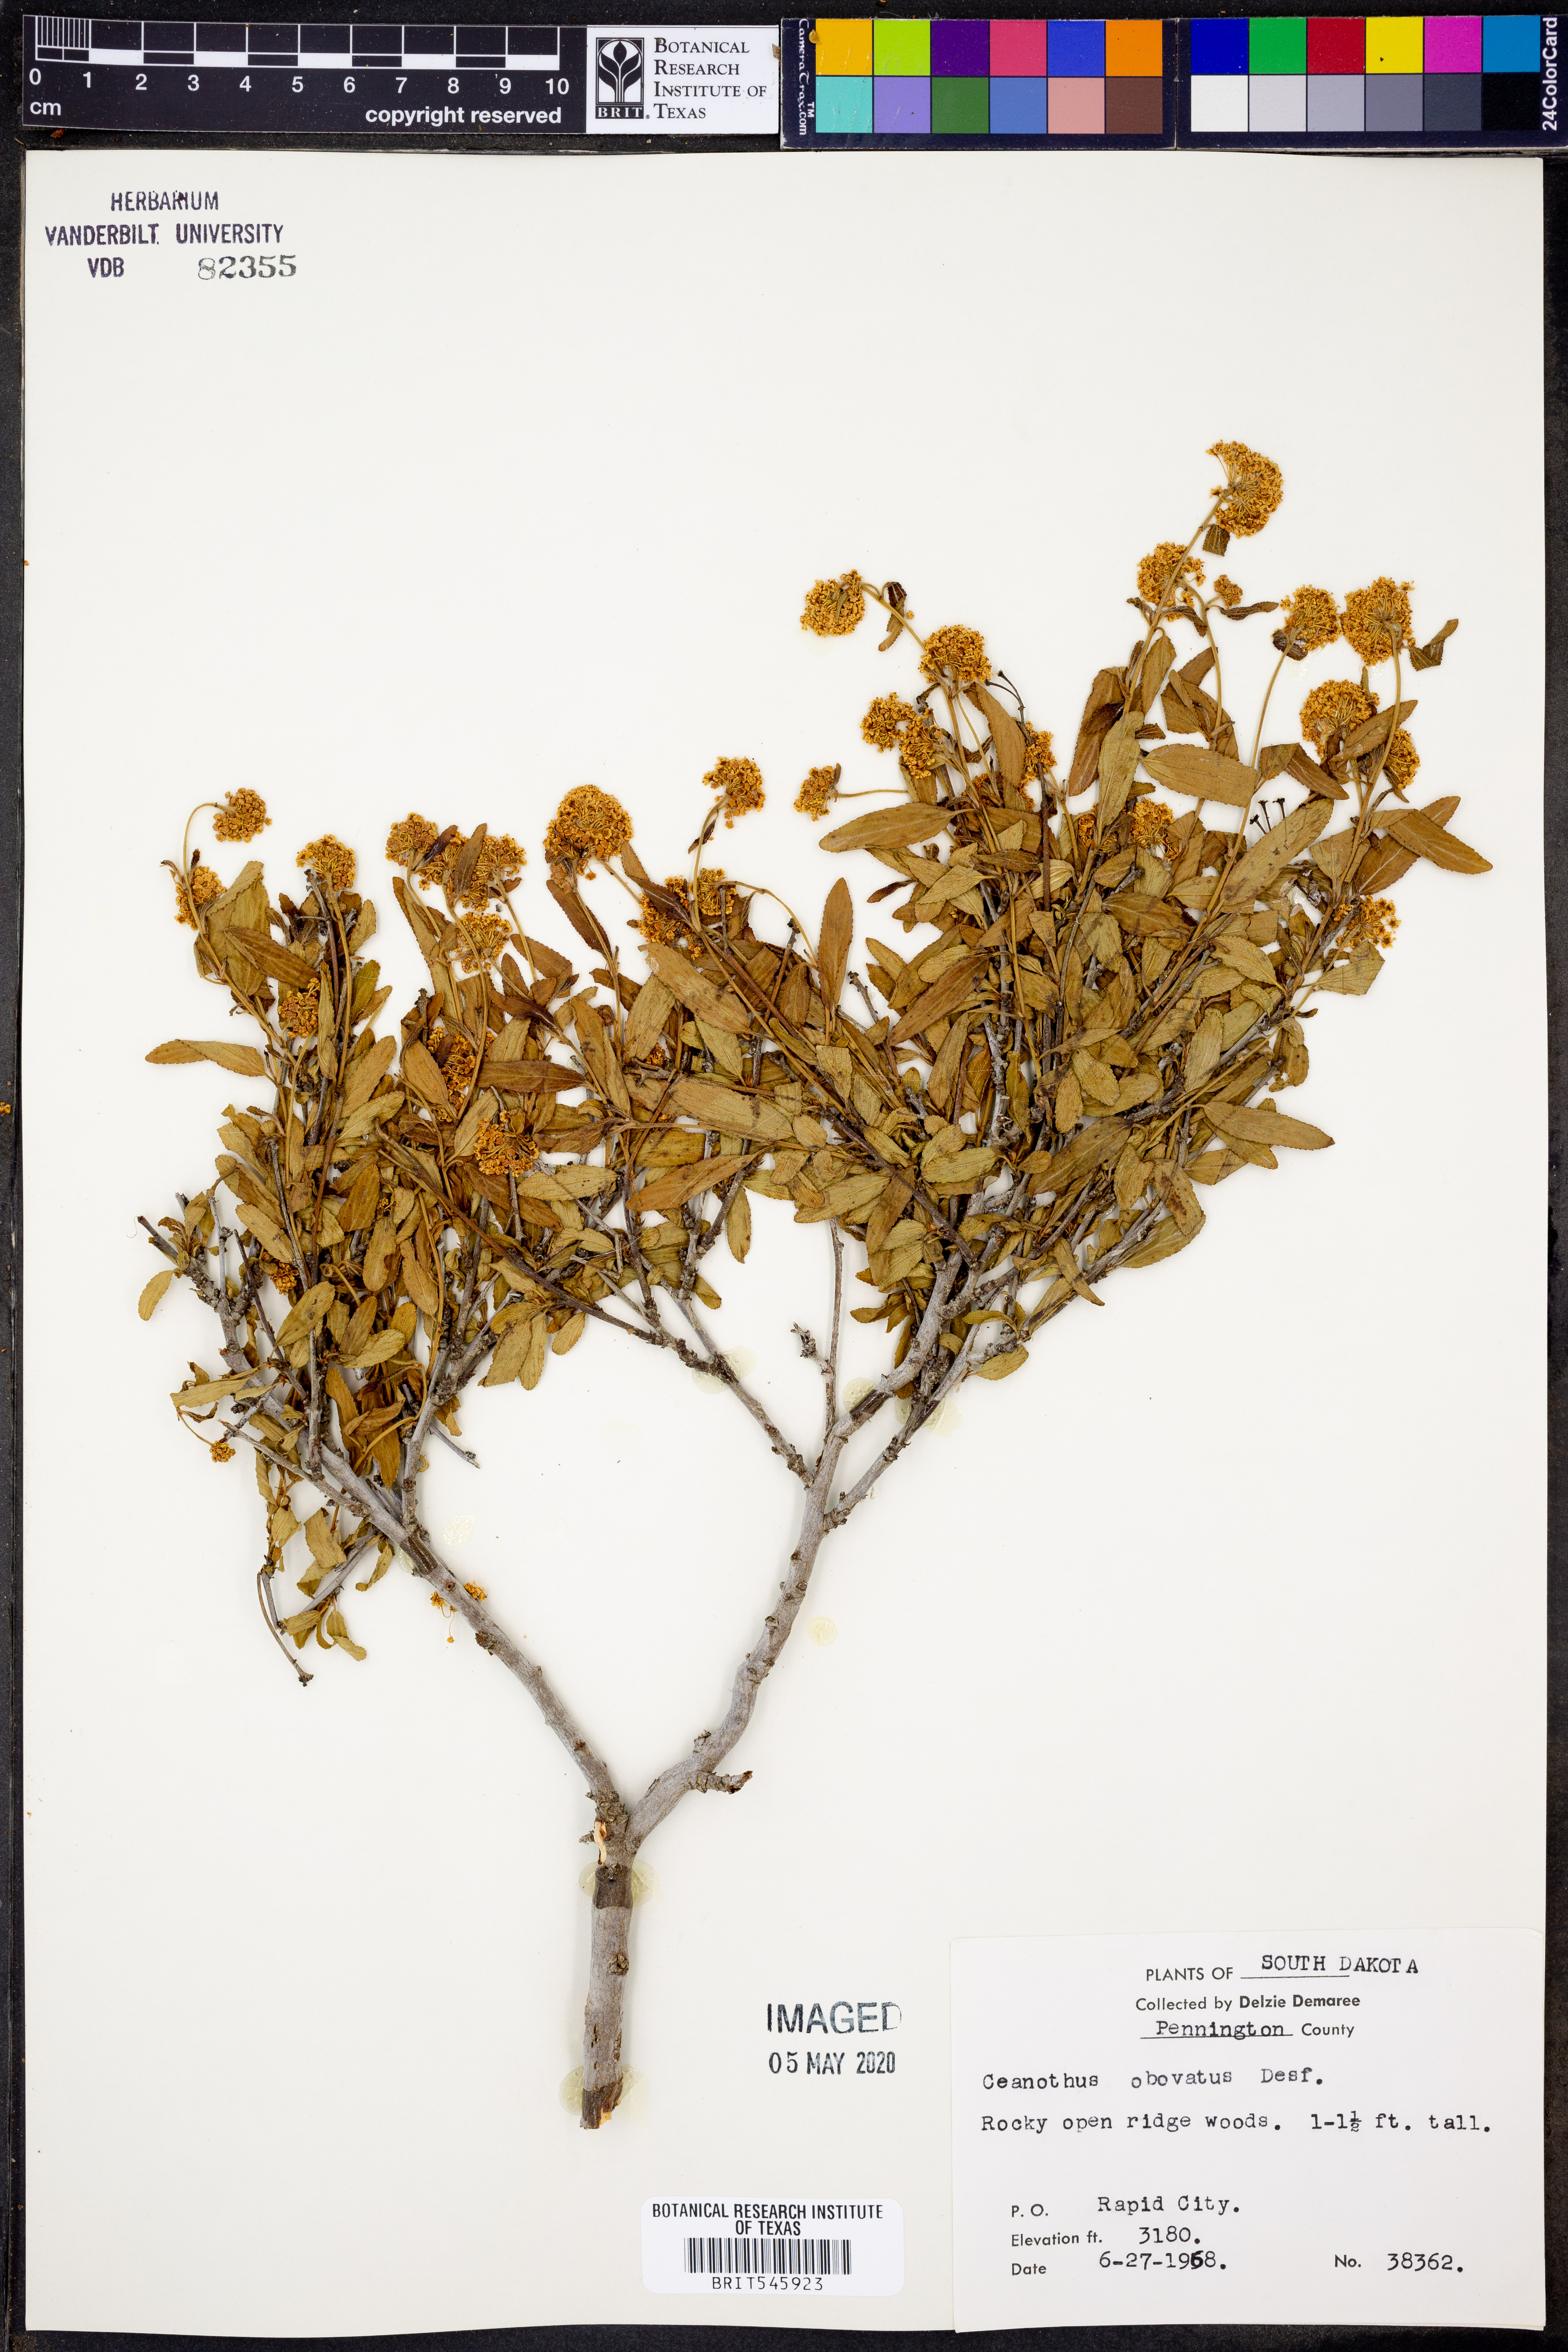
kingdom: Plantae
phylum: Tracheophyta
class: Magnoliopsida
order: Rosales
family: Rhamnaceae
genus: Ceanothus
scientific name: Ceanothus herbaceus
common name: Inland ceanothus
